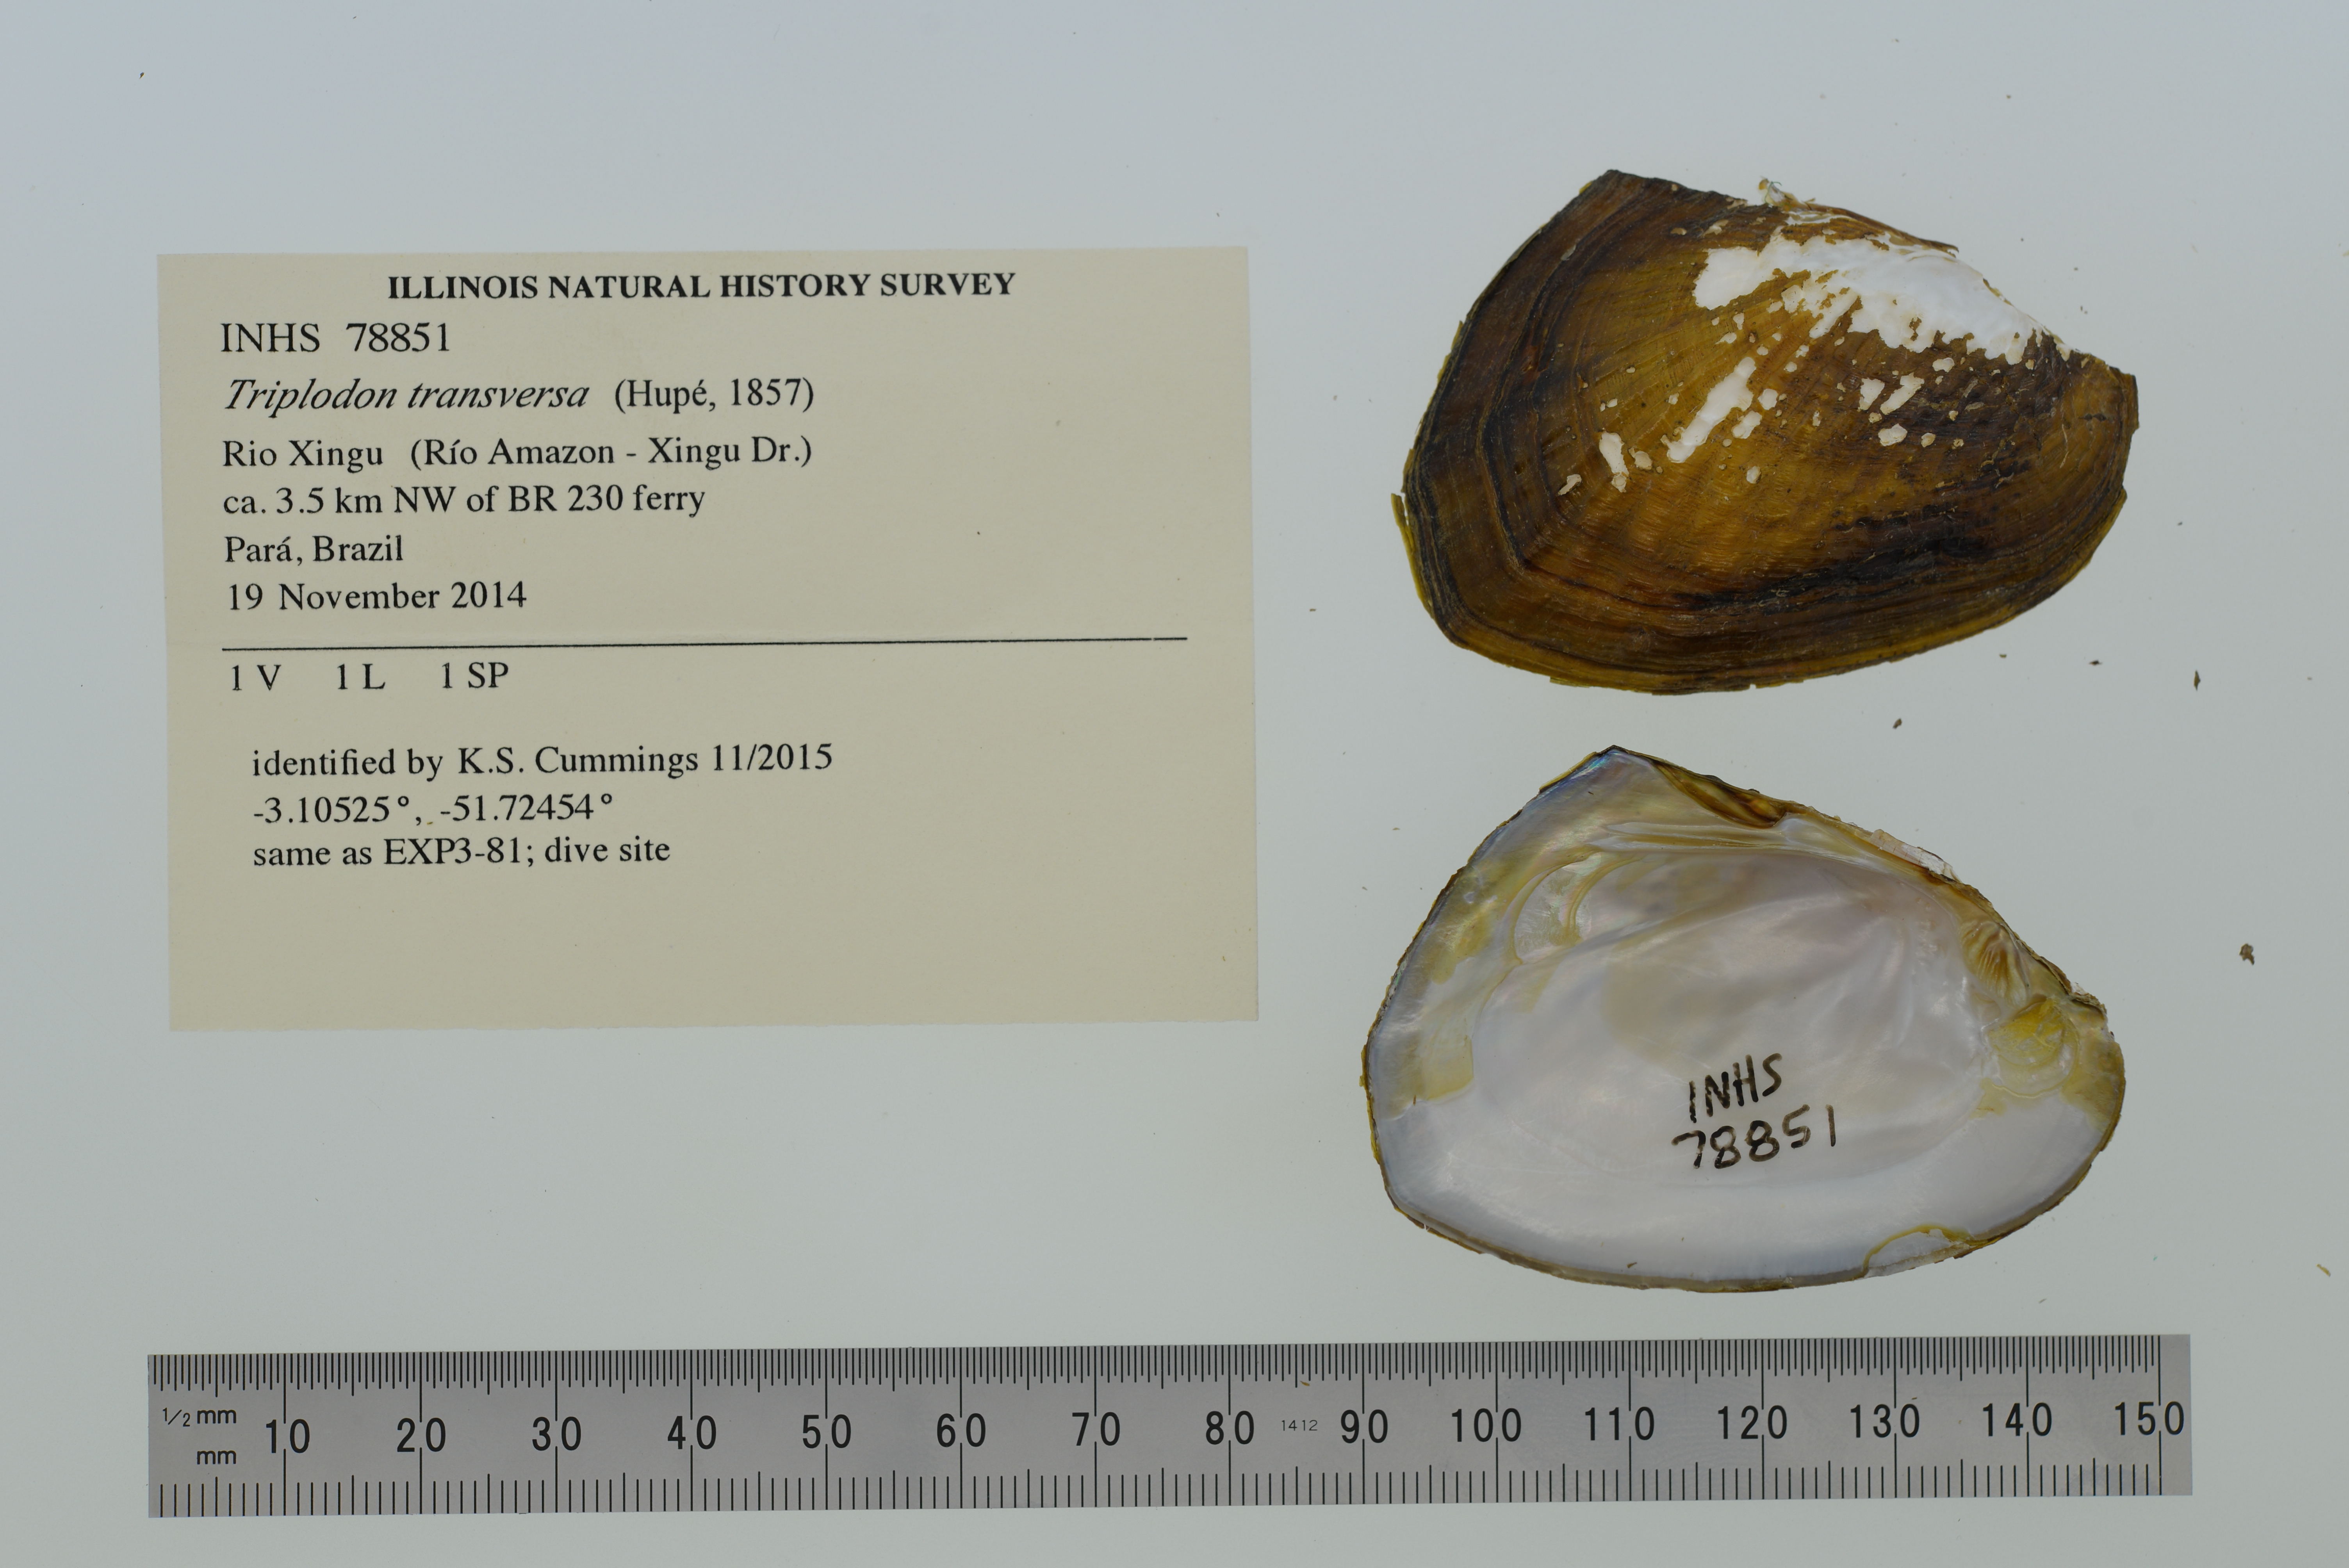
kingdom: Animalia
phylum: Mollusca
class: Bivalvia
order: Unionida
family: Hyriidae
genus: Triplodon
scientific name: Triplodon
